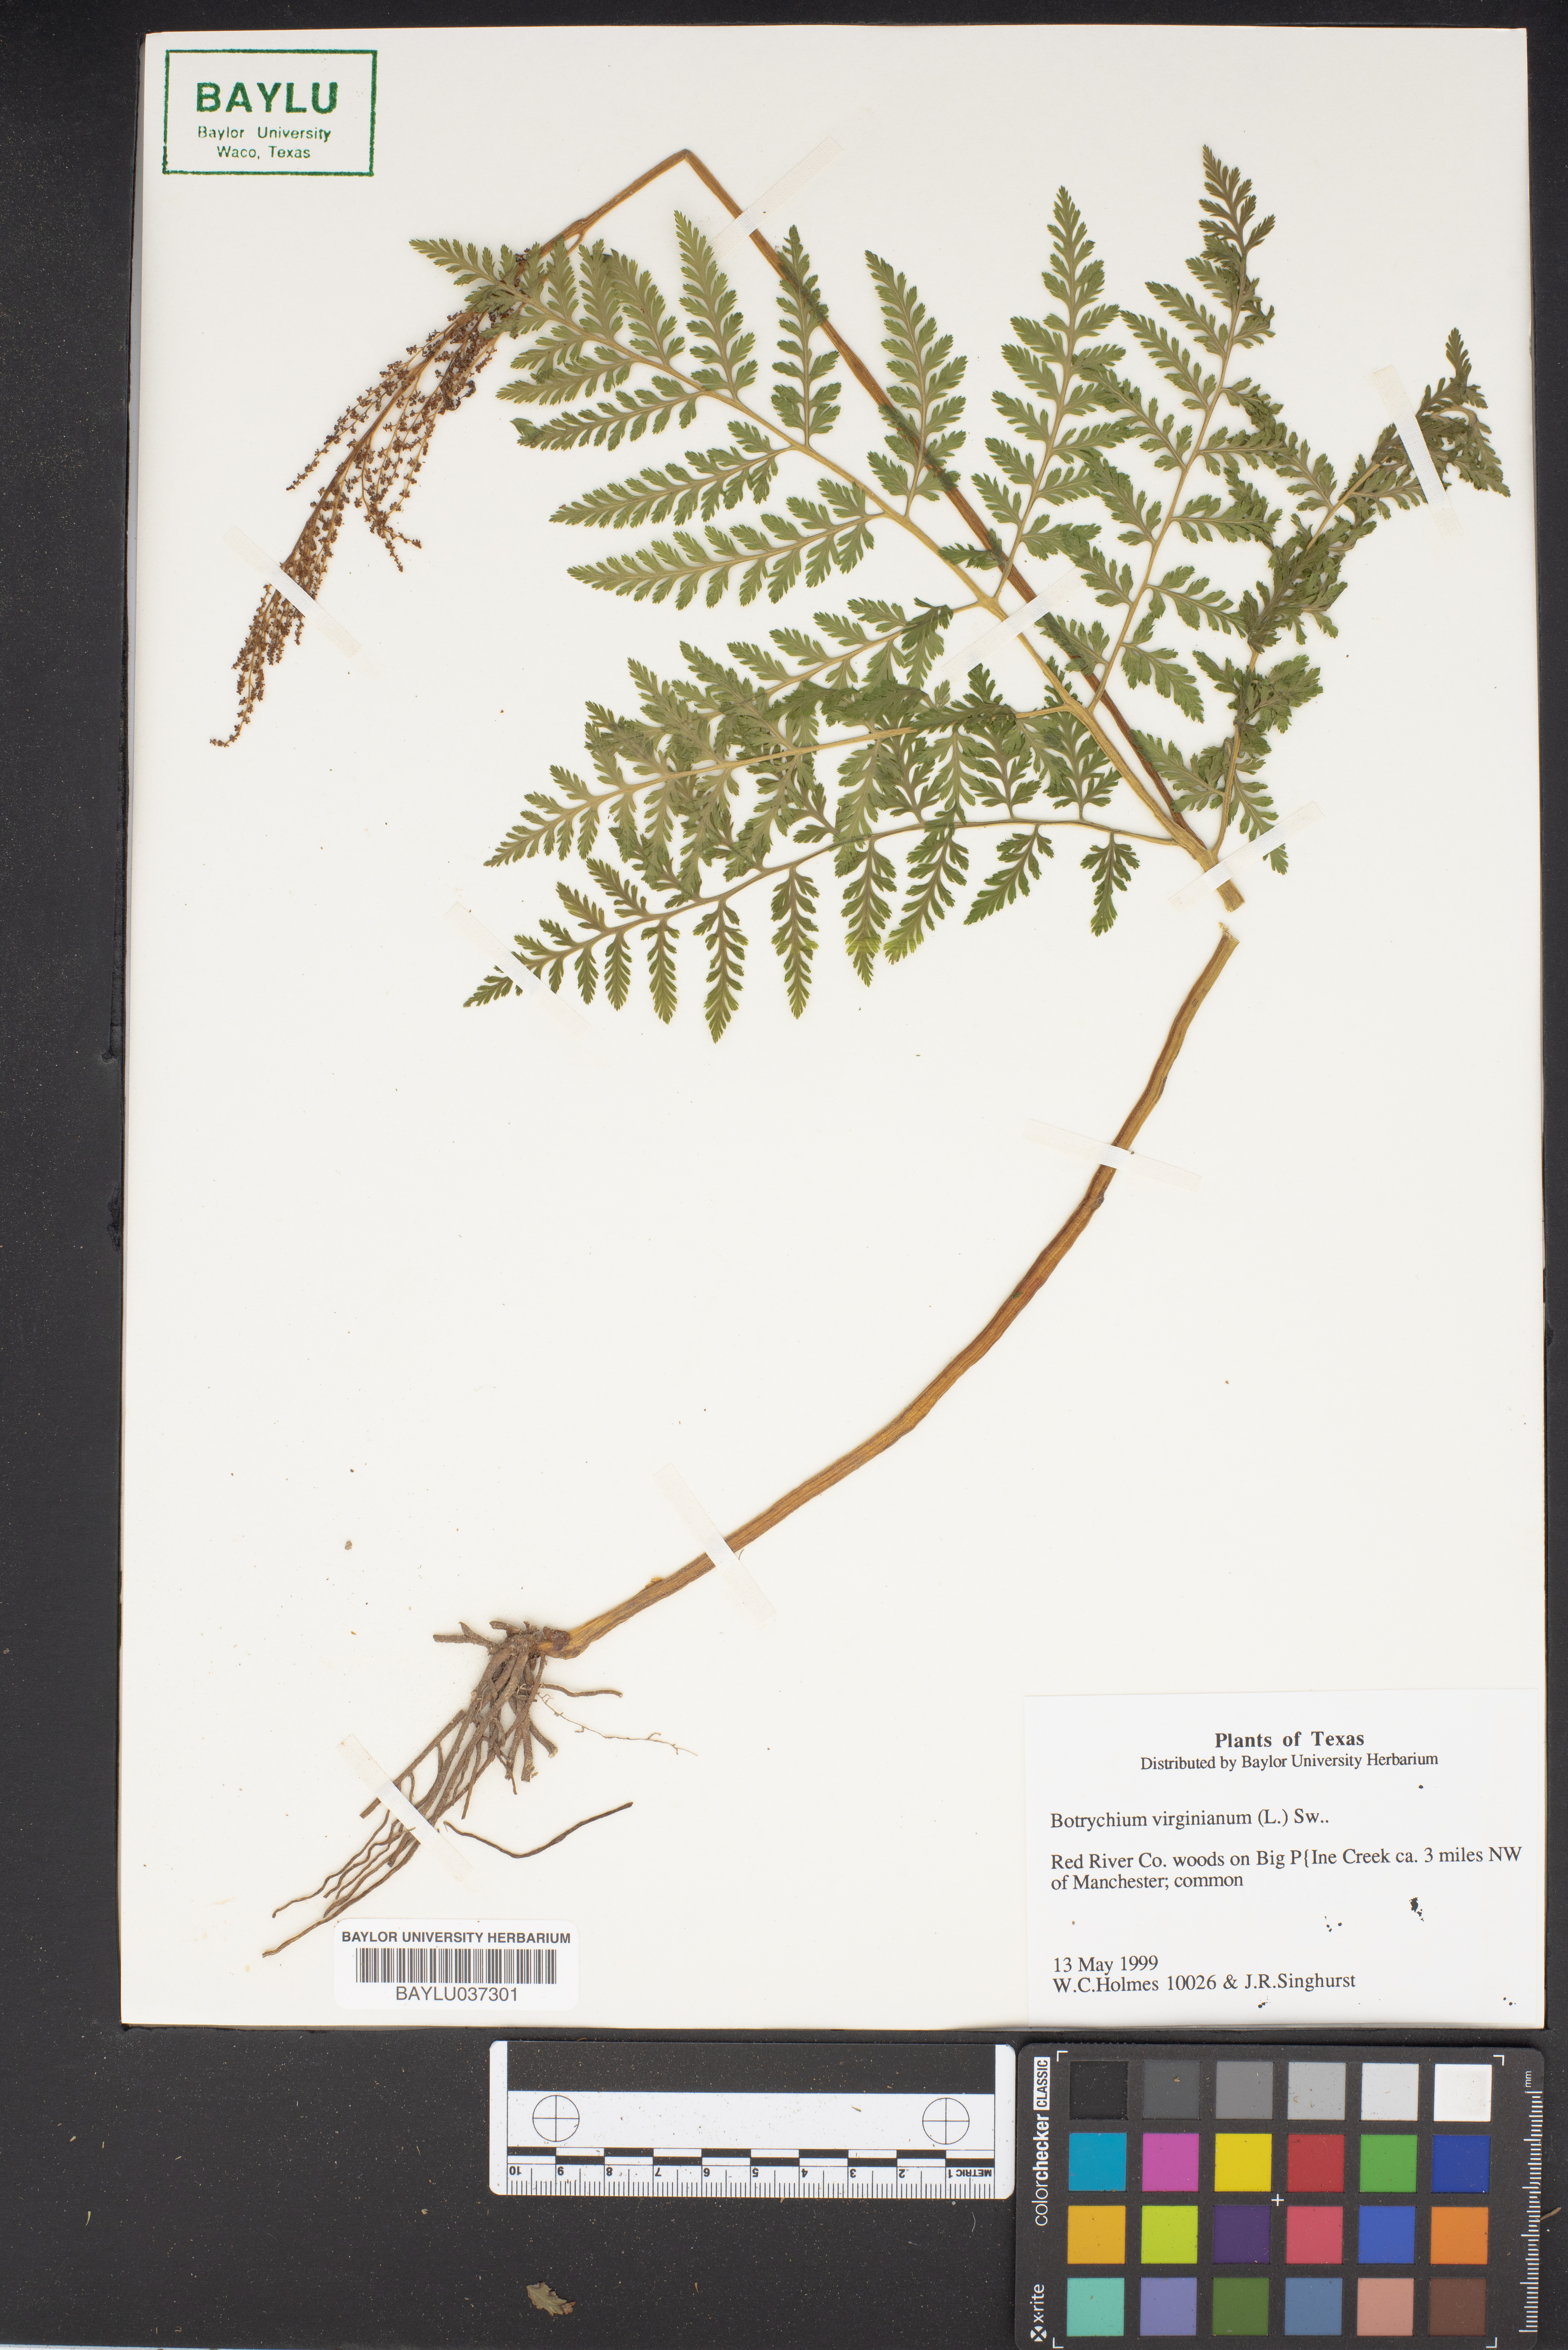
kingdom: Plantae
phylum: Tracheophyta
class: Polypodiopsida
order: Ophioglossales
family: Ophioglossaceae
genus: Botrypus
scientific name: Botrypus virginianus
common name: Common grapefern
